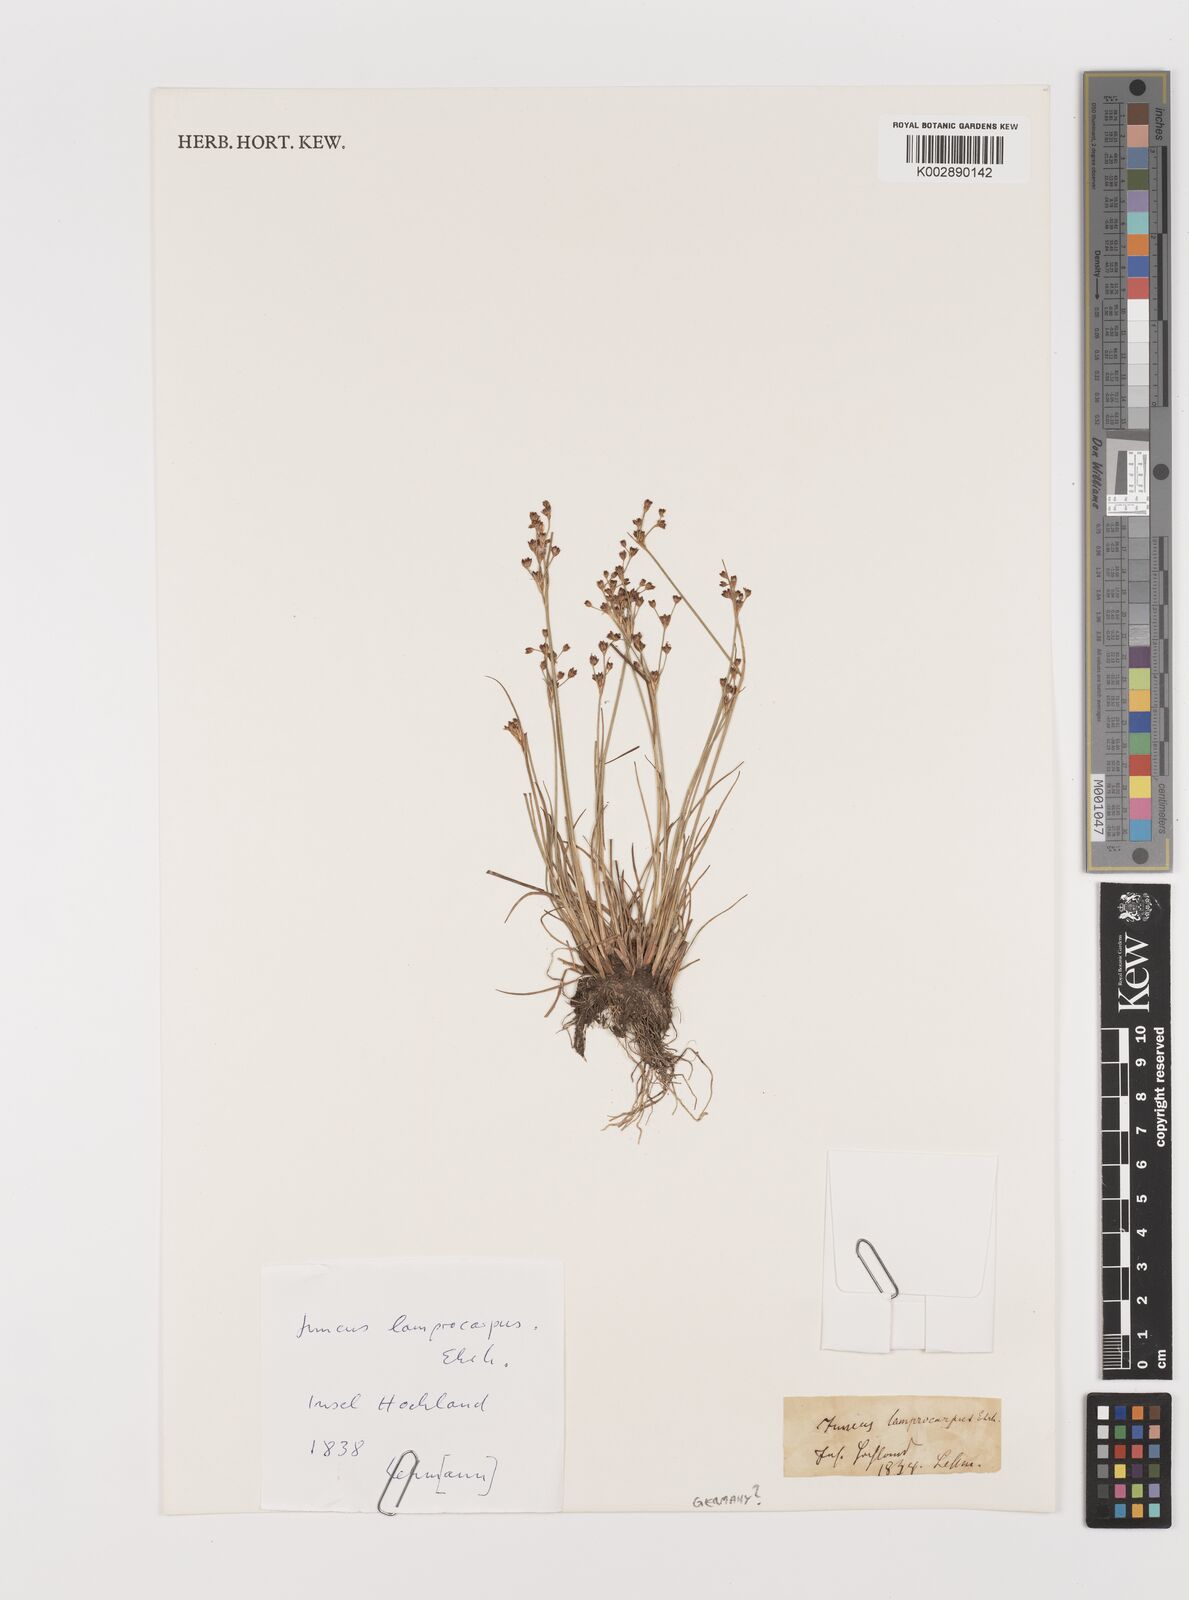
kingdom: Plantae
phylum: Tracheophyta
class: Liliopsida
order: Poales
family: Juncaceae
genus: Juncus
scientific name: Juncus articulatus
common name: Jointed rush
